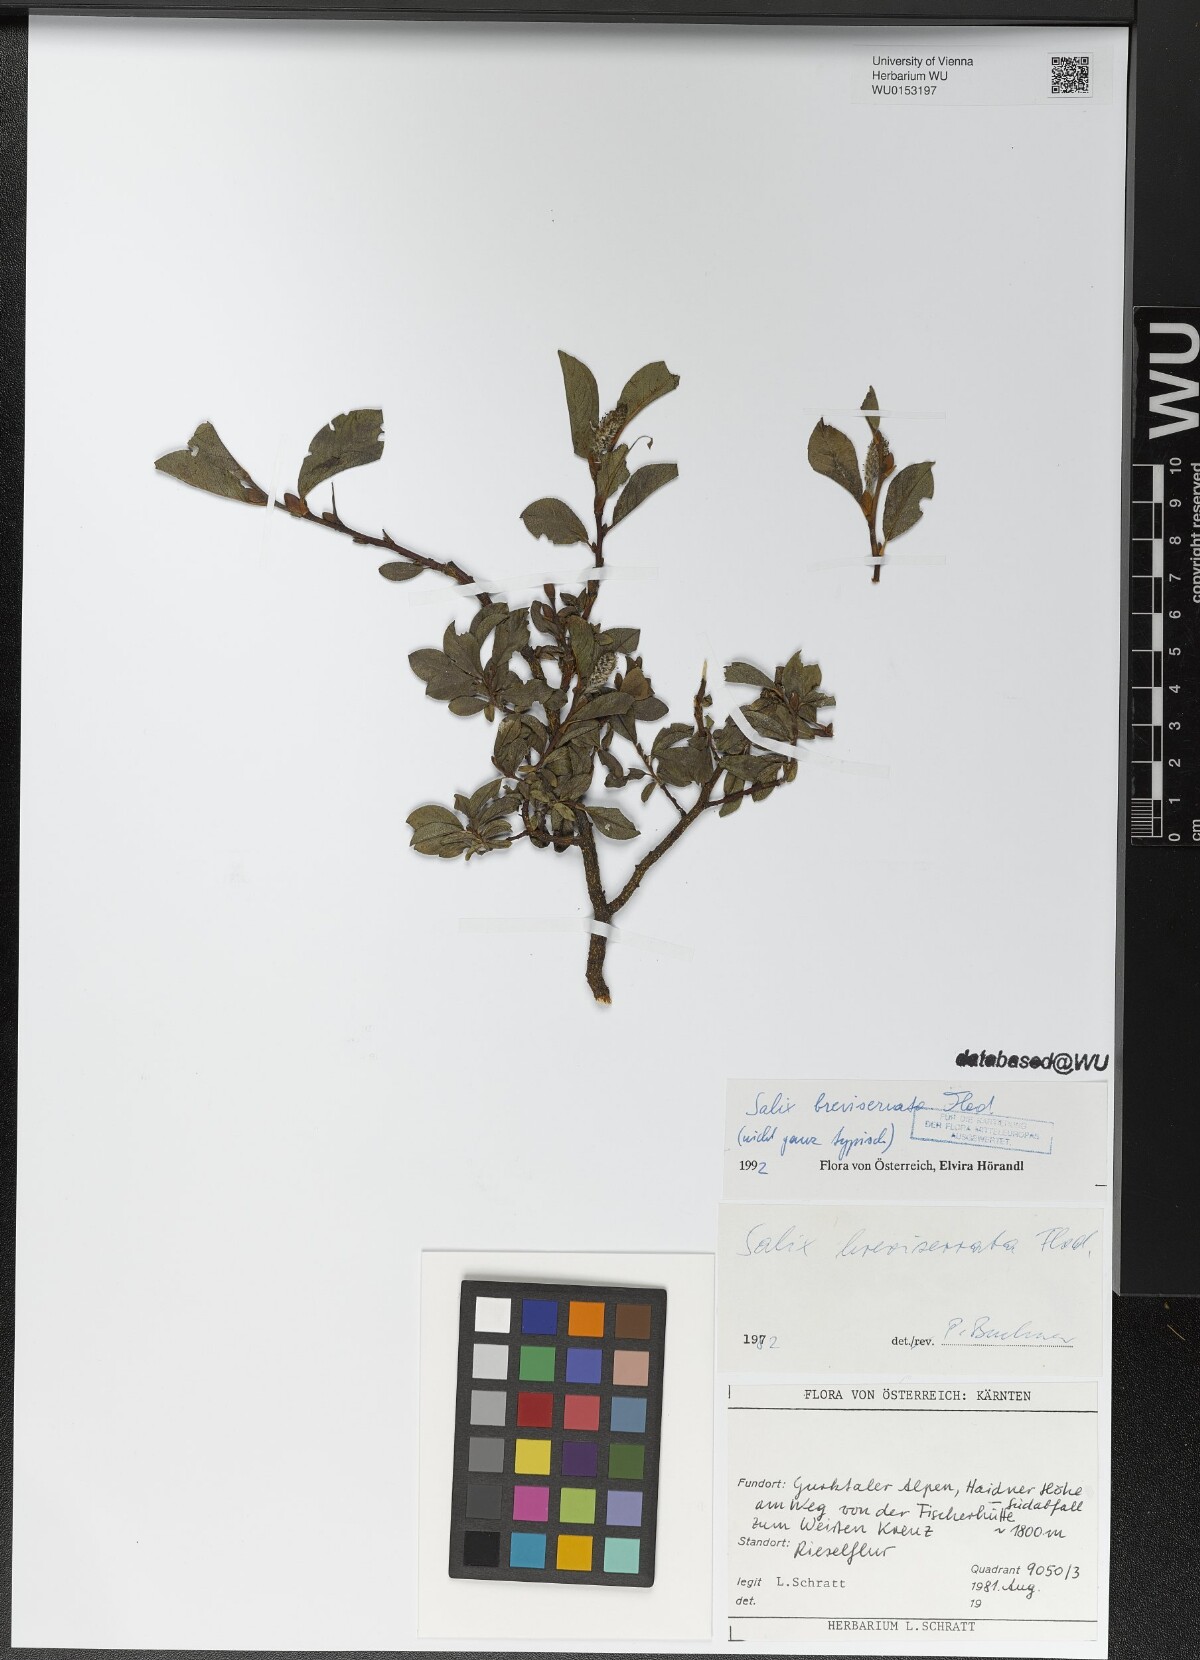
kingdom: Plantae
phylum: Tracheophyta
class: Magnoliopsida
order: Malpighiales
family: Salicaceae
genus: Salix
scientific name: Salix breviserrata
